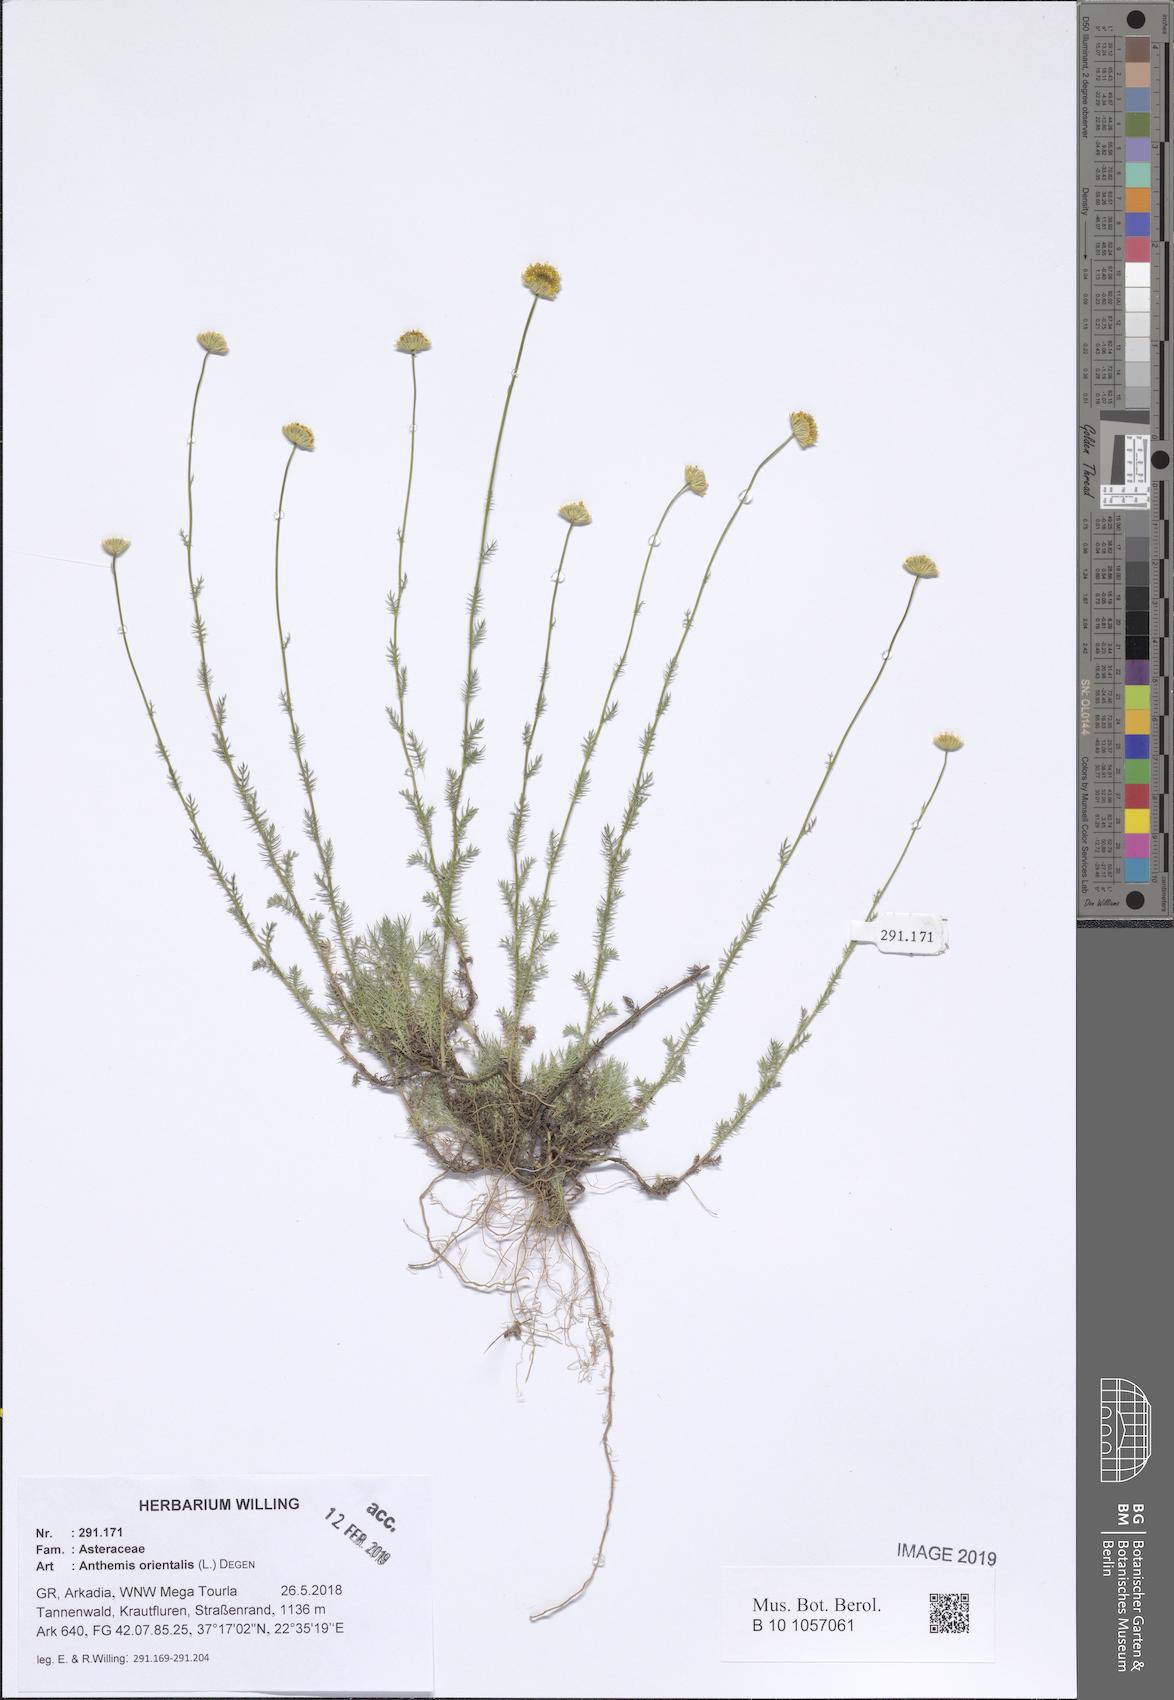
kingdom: Plantae
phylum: Tracheophyta
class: Magnoliopsida
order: Asterales
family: Asteraceae
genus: Anthemis
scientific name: Anthemis orientalis
